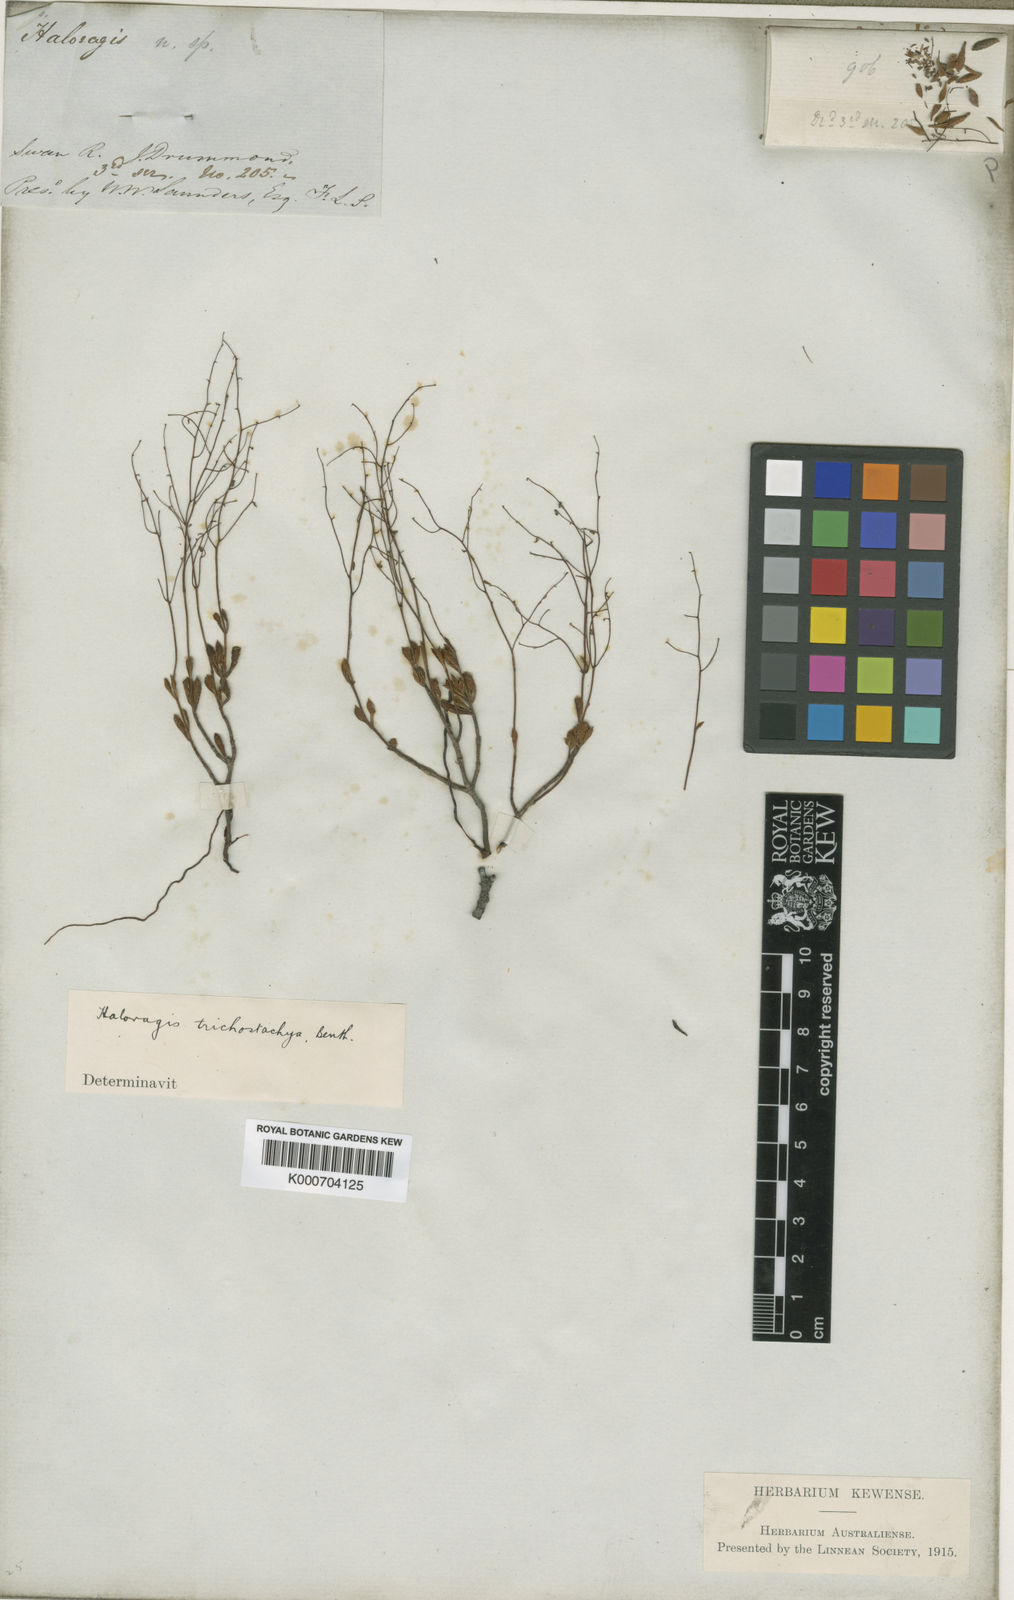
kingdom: Plantae
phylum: Tracheophyta
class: Magnoliopsida
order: Saxifragales
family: Haloragaceae
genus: Gonocarpus
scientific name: Gonocarpus trichostachyus
